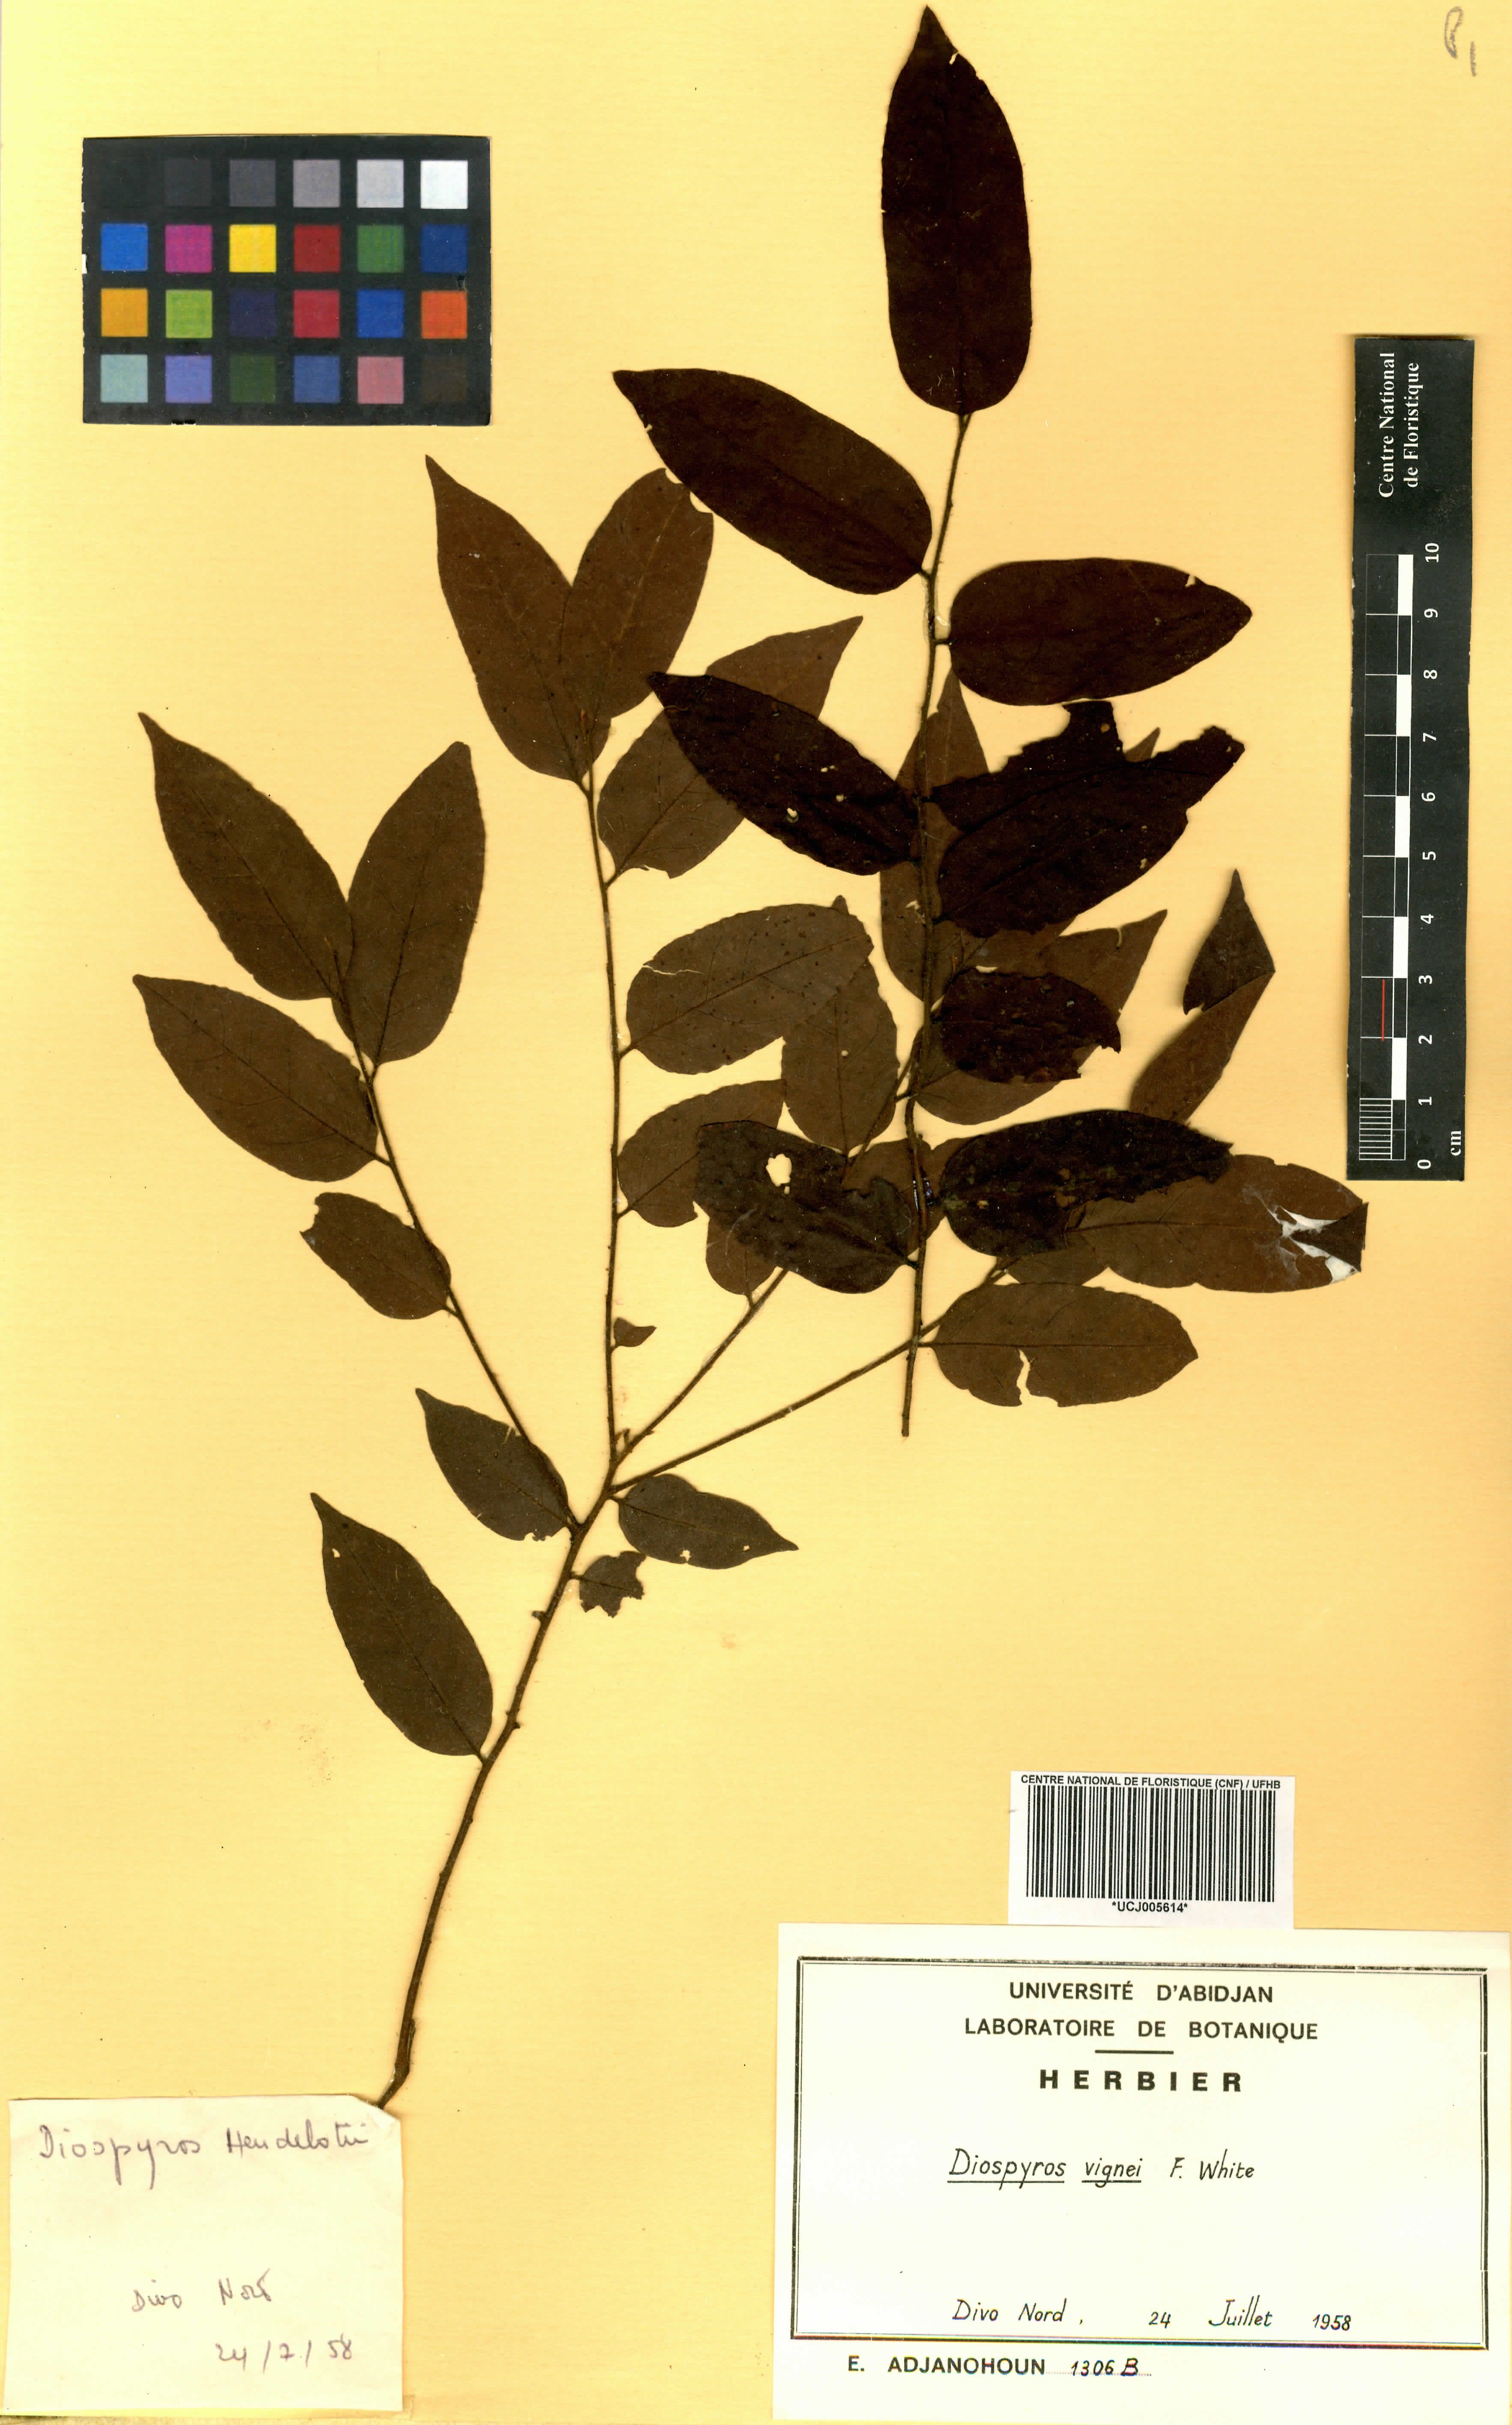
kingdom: Plantae
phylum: Tracheophyta
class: Magnoliopsida
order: Ericales
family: Ebenaceae
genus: Diospyros
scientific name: Diospyros vignei
